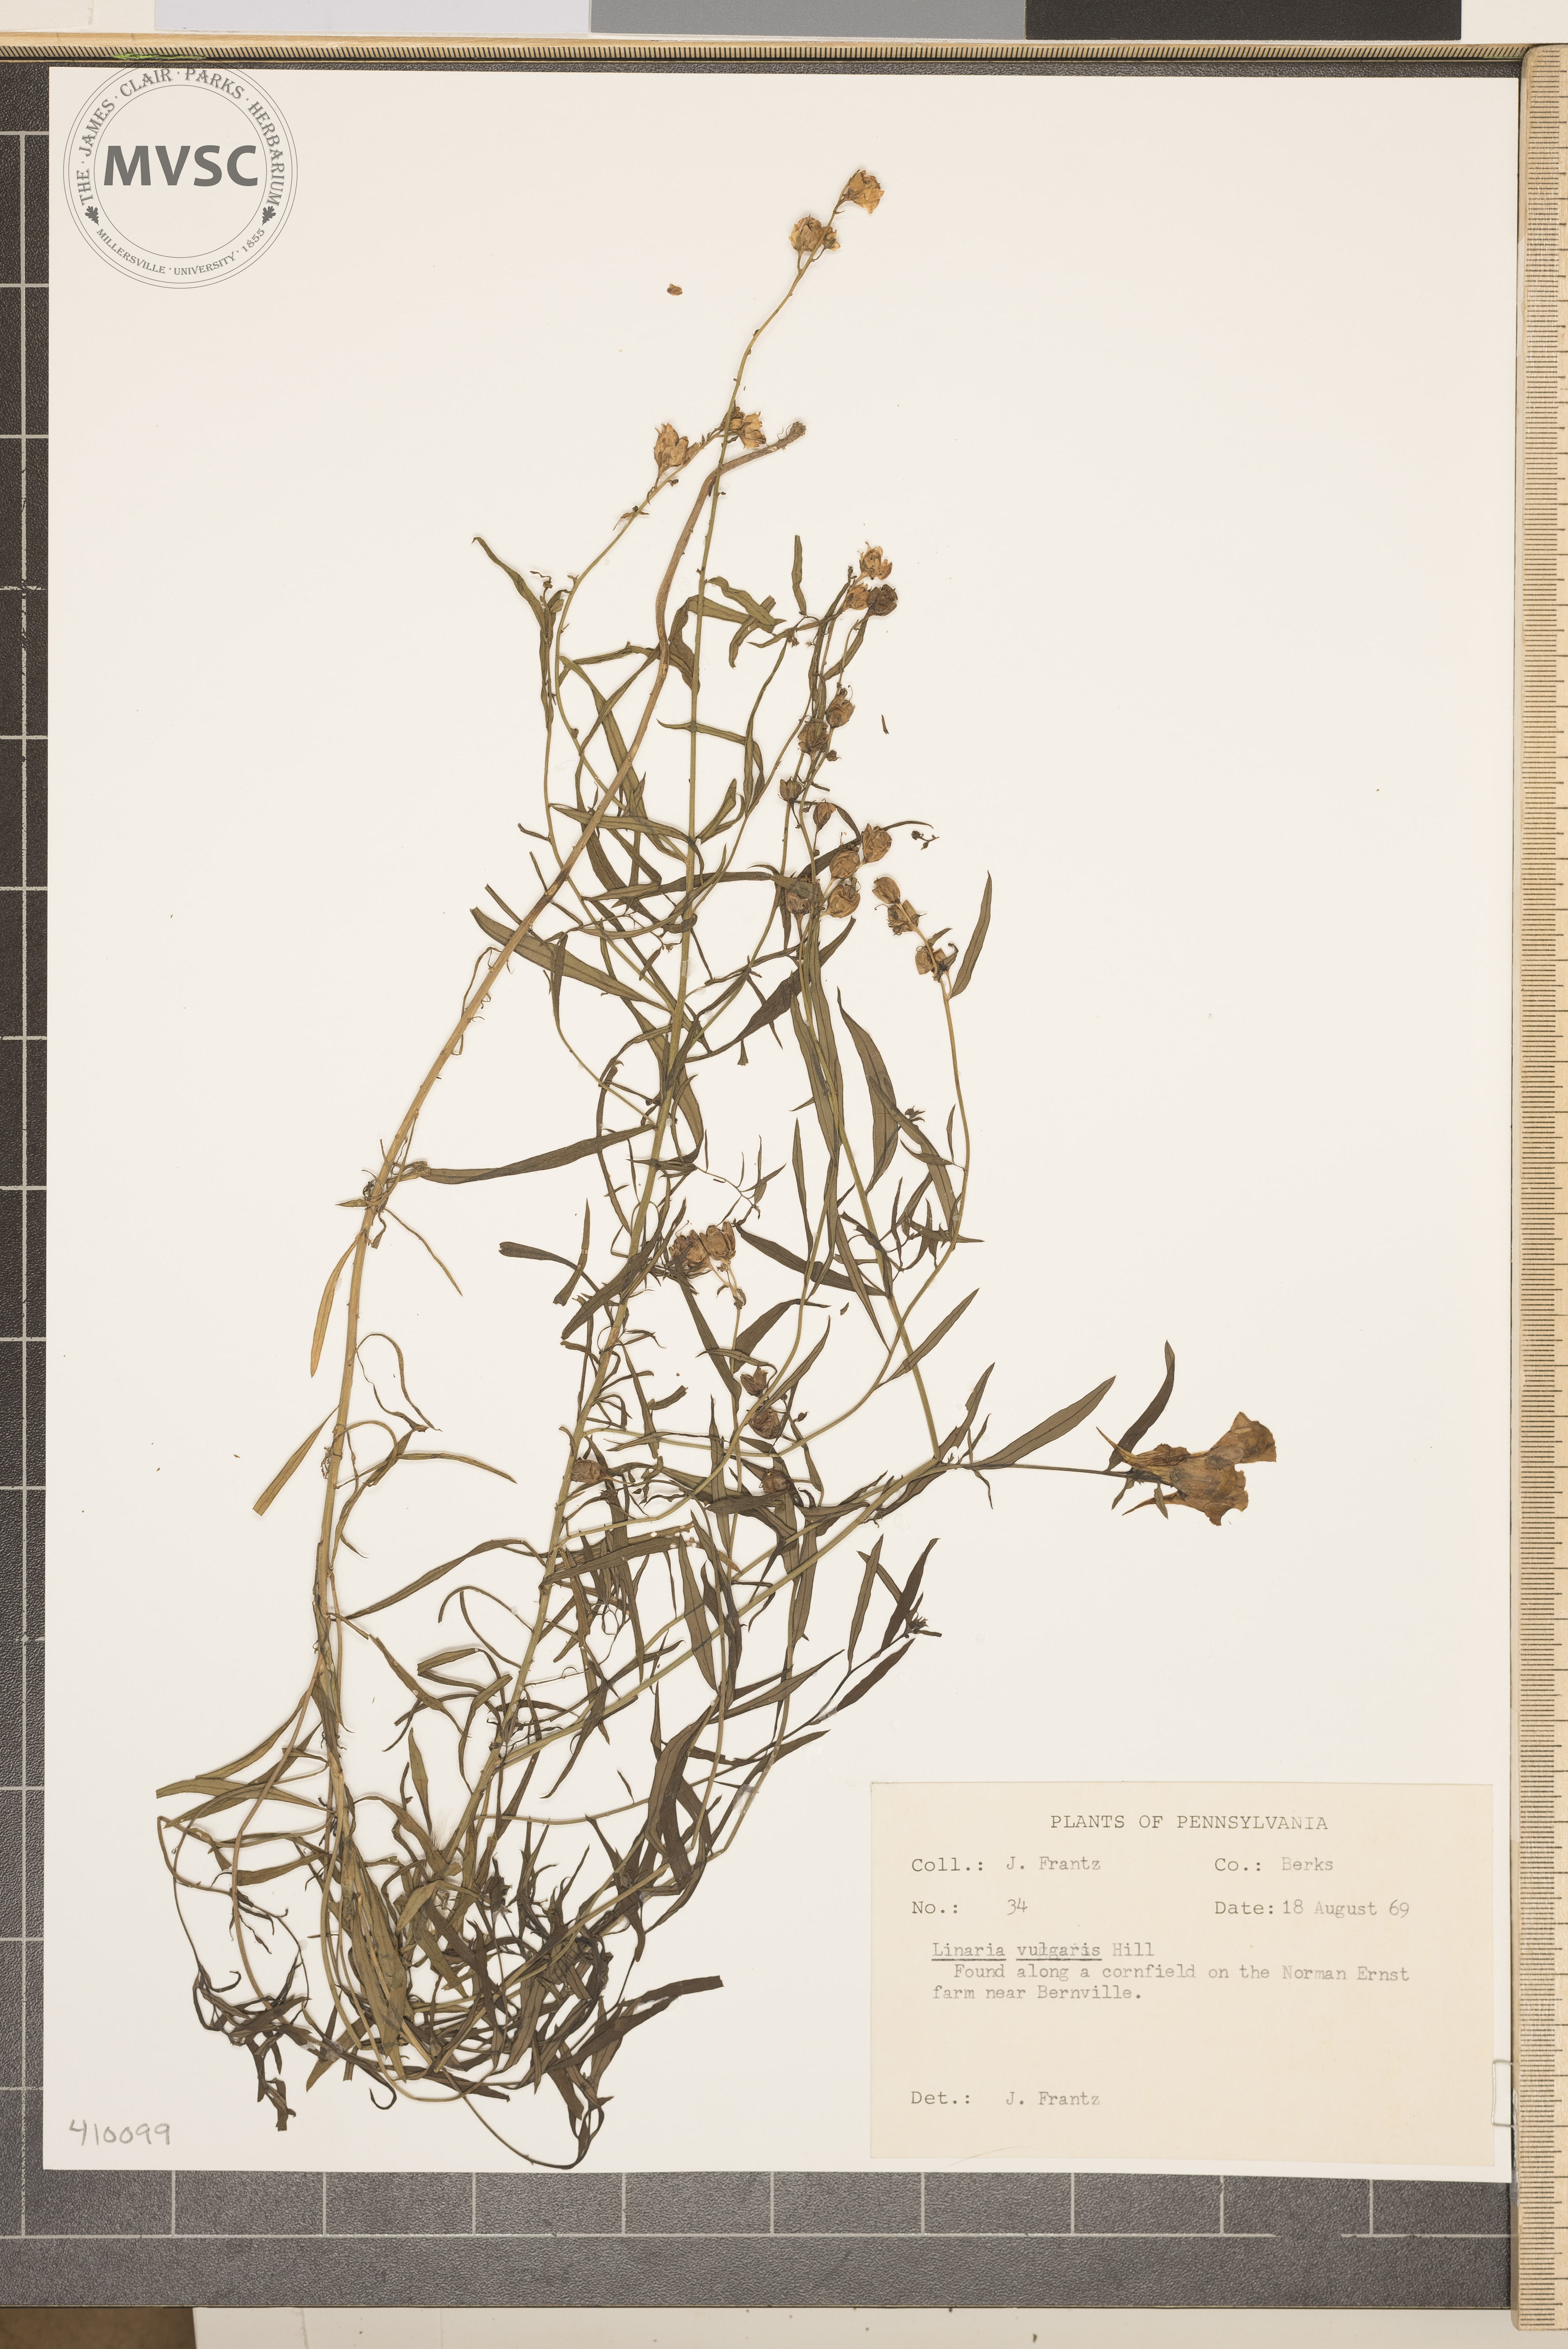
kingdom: Plantae
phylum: Tracheophyta
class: Magnoliopsida
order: Lamiales
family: Plantaginaceae
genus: Linaria
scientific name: Linaria vulgaris
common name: Butter and eggs
